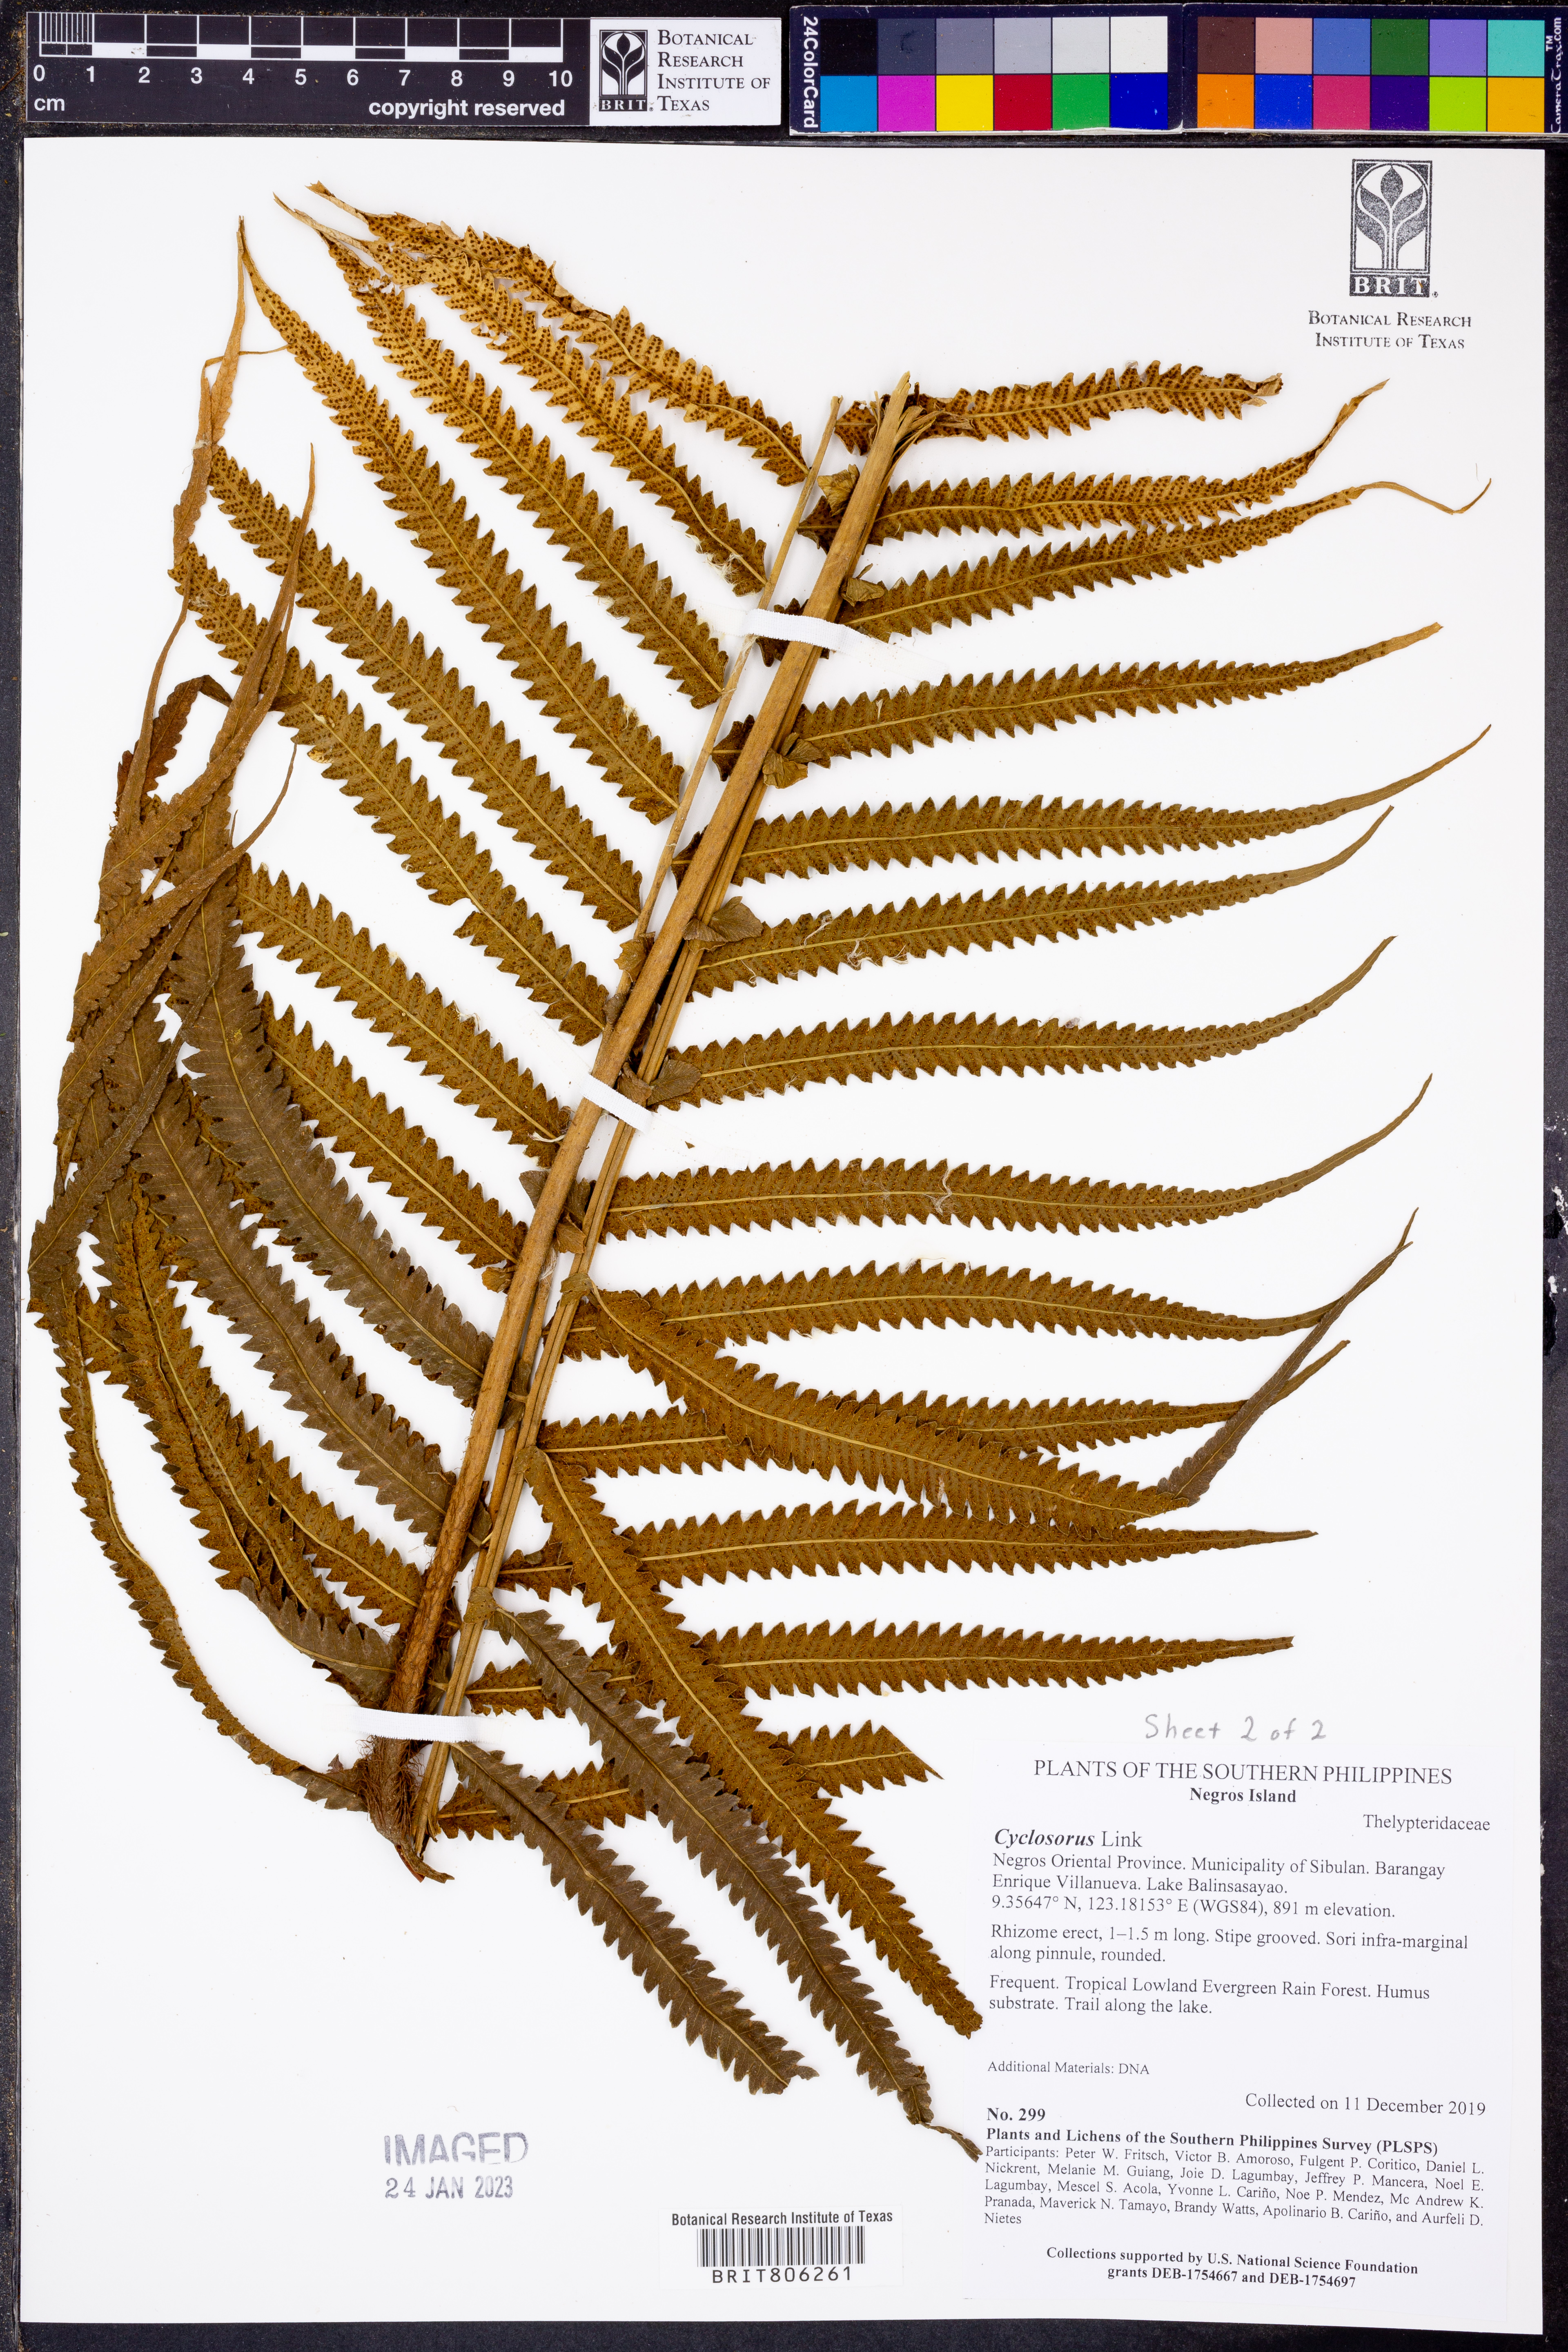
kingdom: Plantae
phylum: Tracheophyta
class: Polypodiopsida
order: Polypodiales
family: Thelypteridaceae
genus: Cyclosorus
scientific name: Cyclosorus
